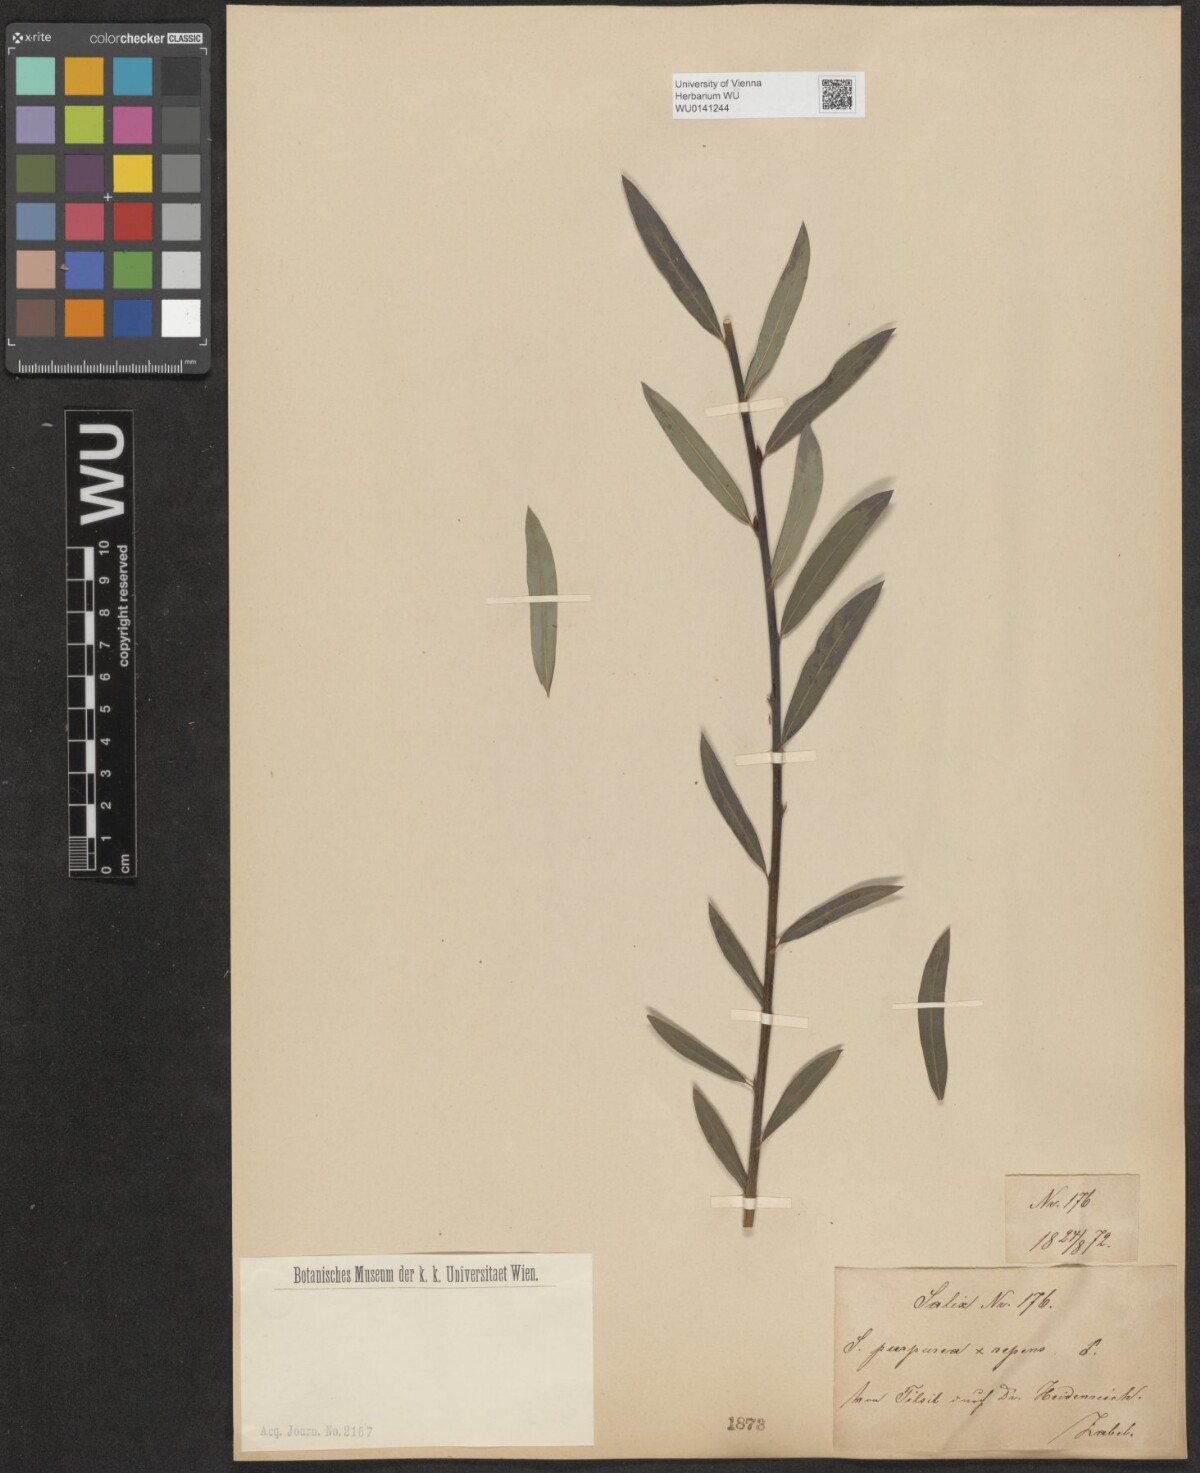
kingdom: Plantae
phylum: Tracheophyta
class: Magnoliopsida
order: Malpighiales
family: Salicaceae
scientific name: Salicaceae
